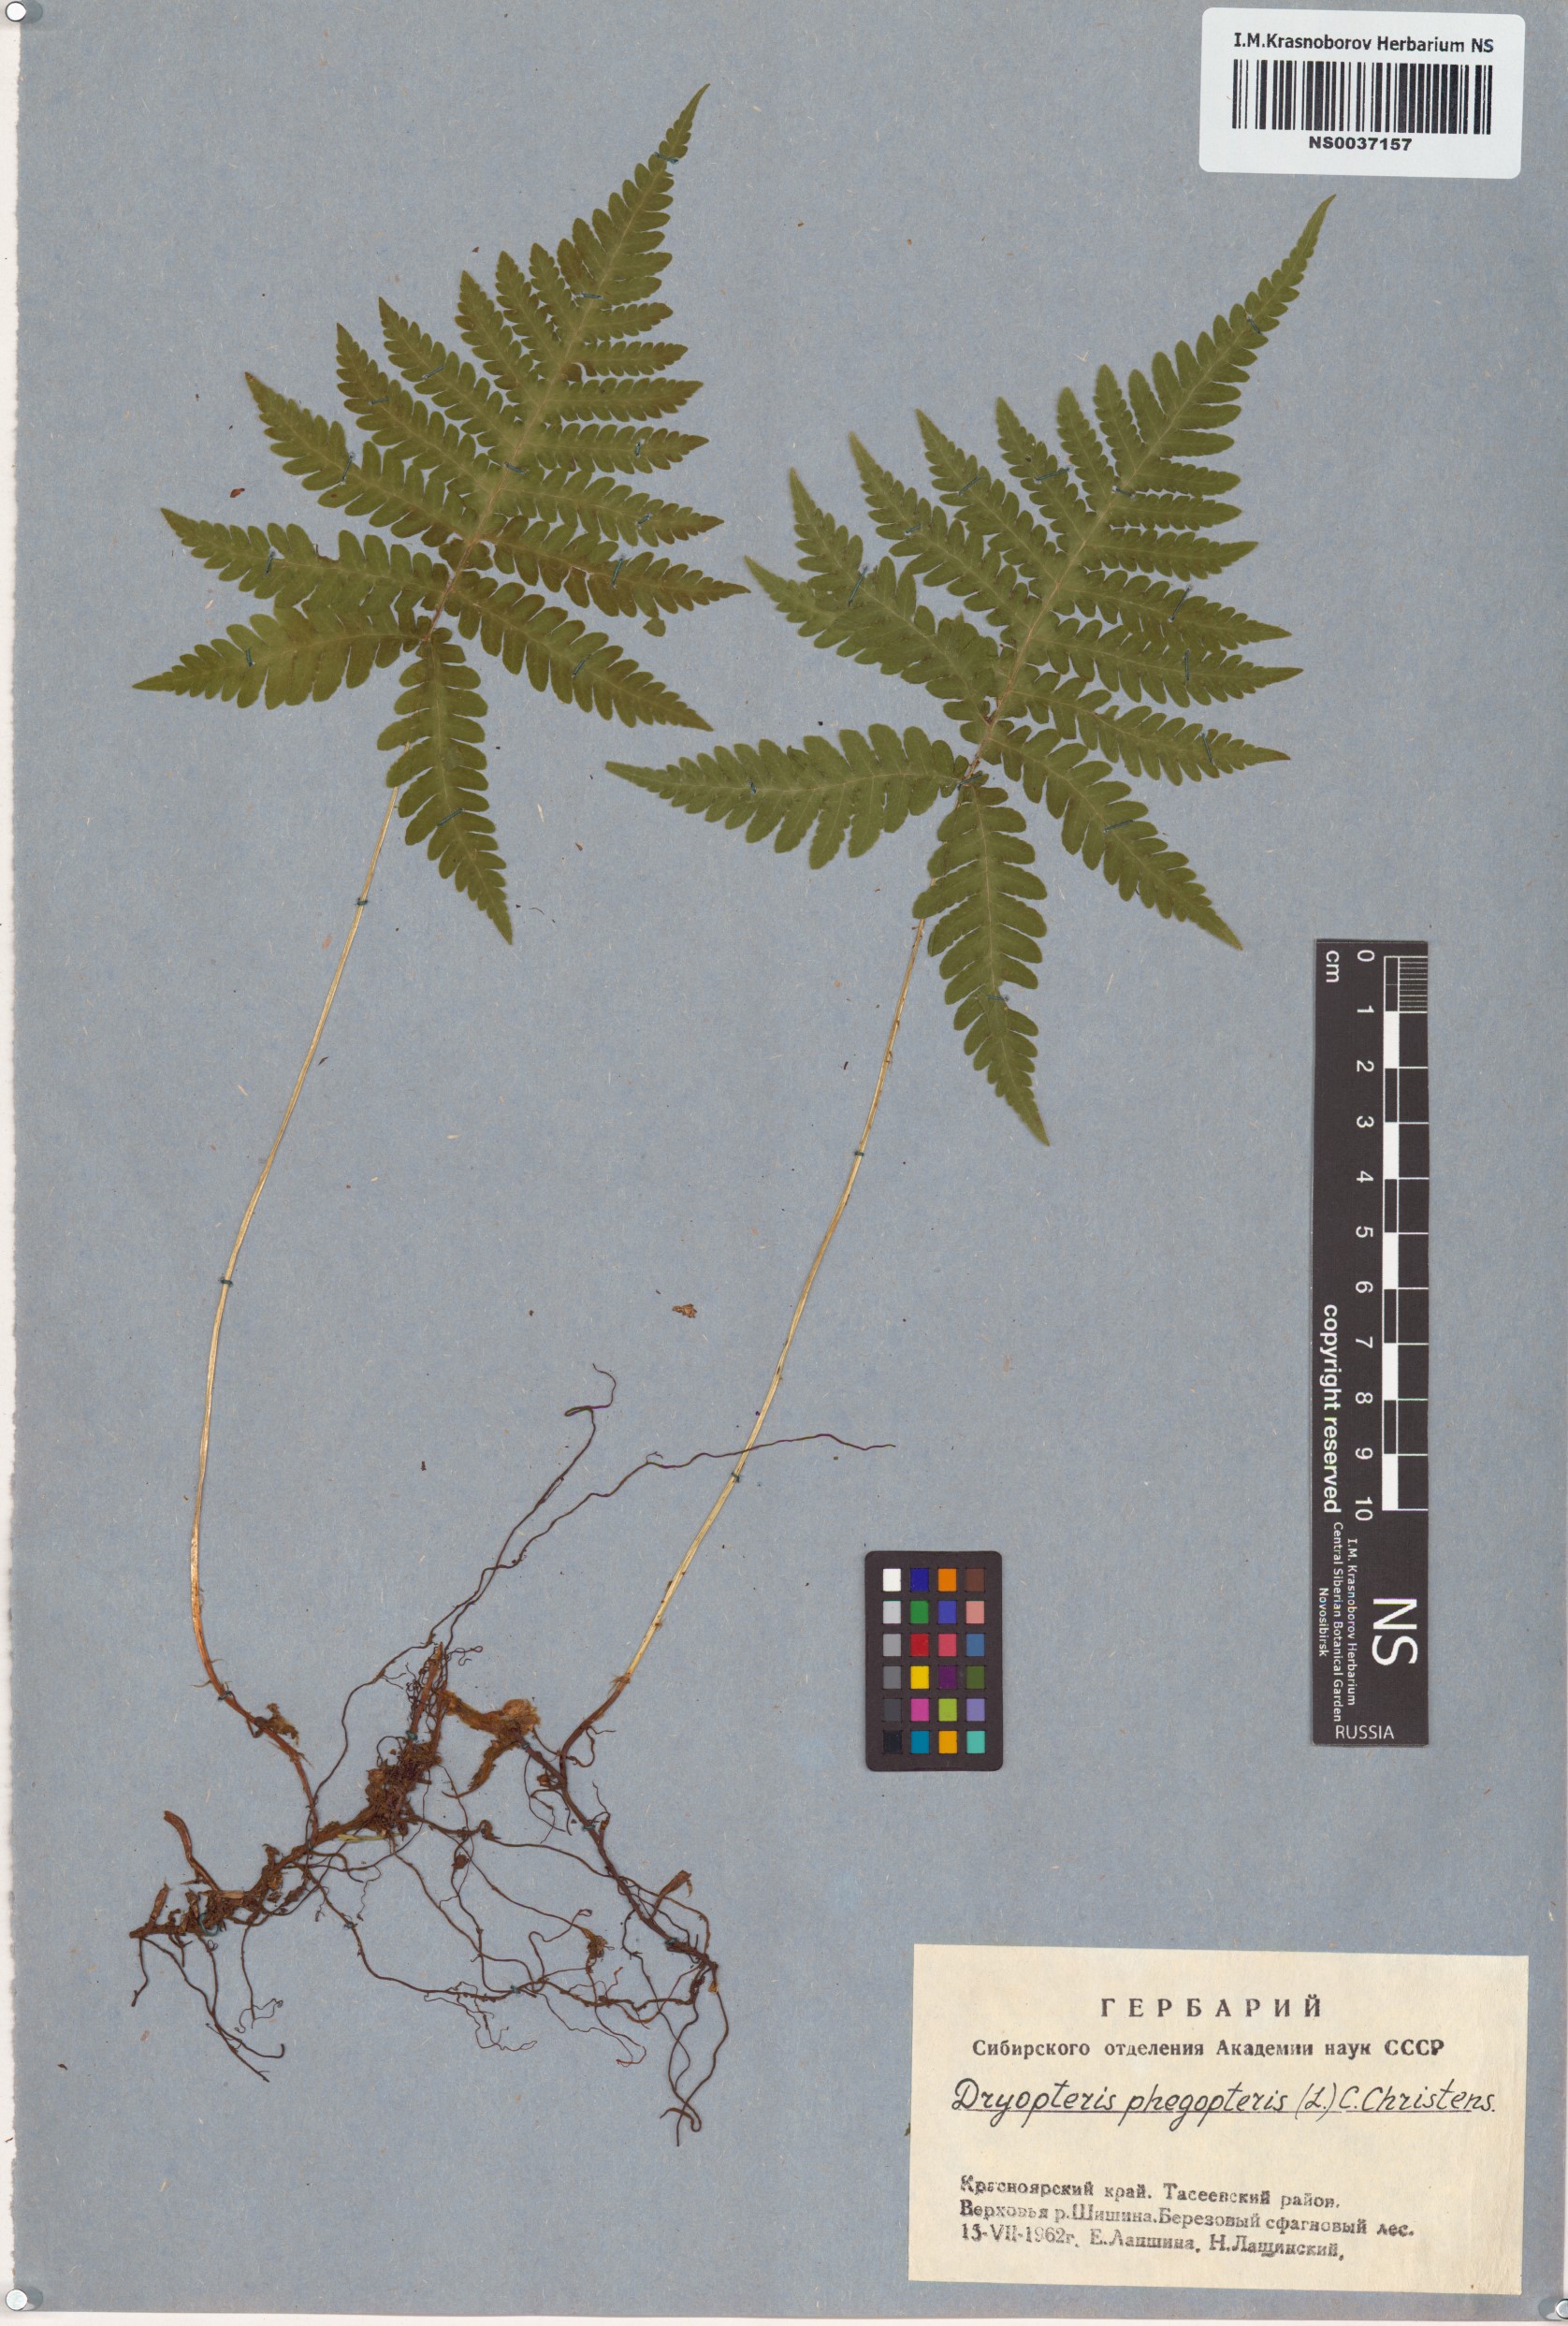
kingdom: Plantae
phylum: Tracheophyta
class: Polypodiopsida
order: Polypodiales
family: Thelypteridaceae
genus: Phegopteris
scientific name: Phegopteris connectilis
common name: Beech fern
